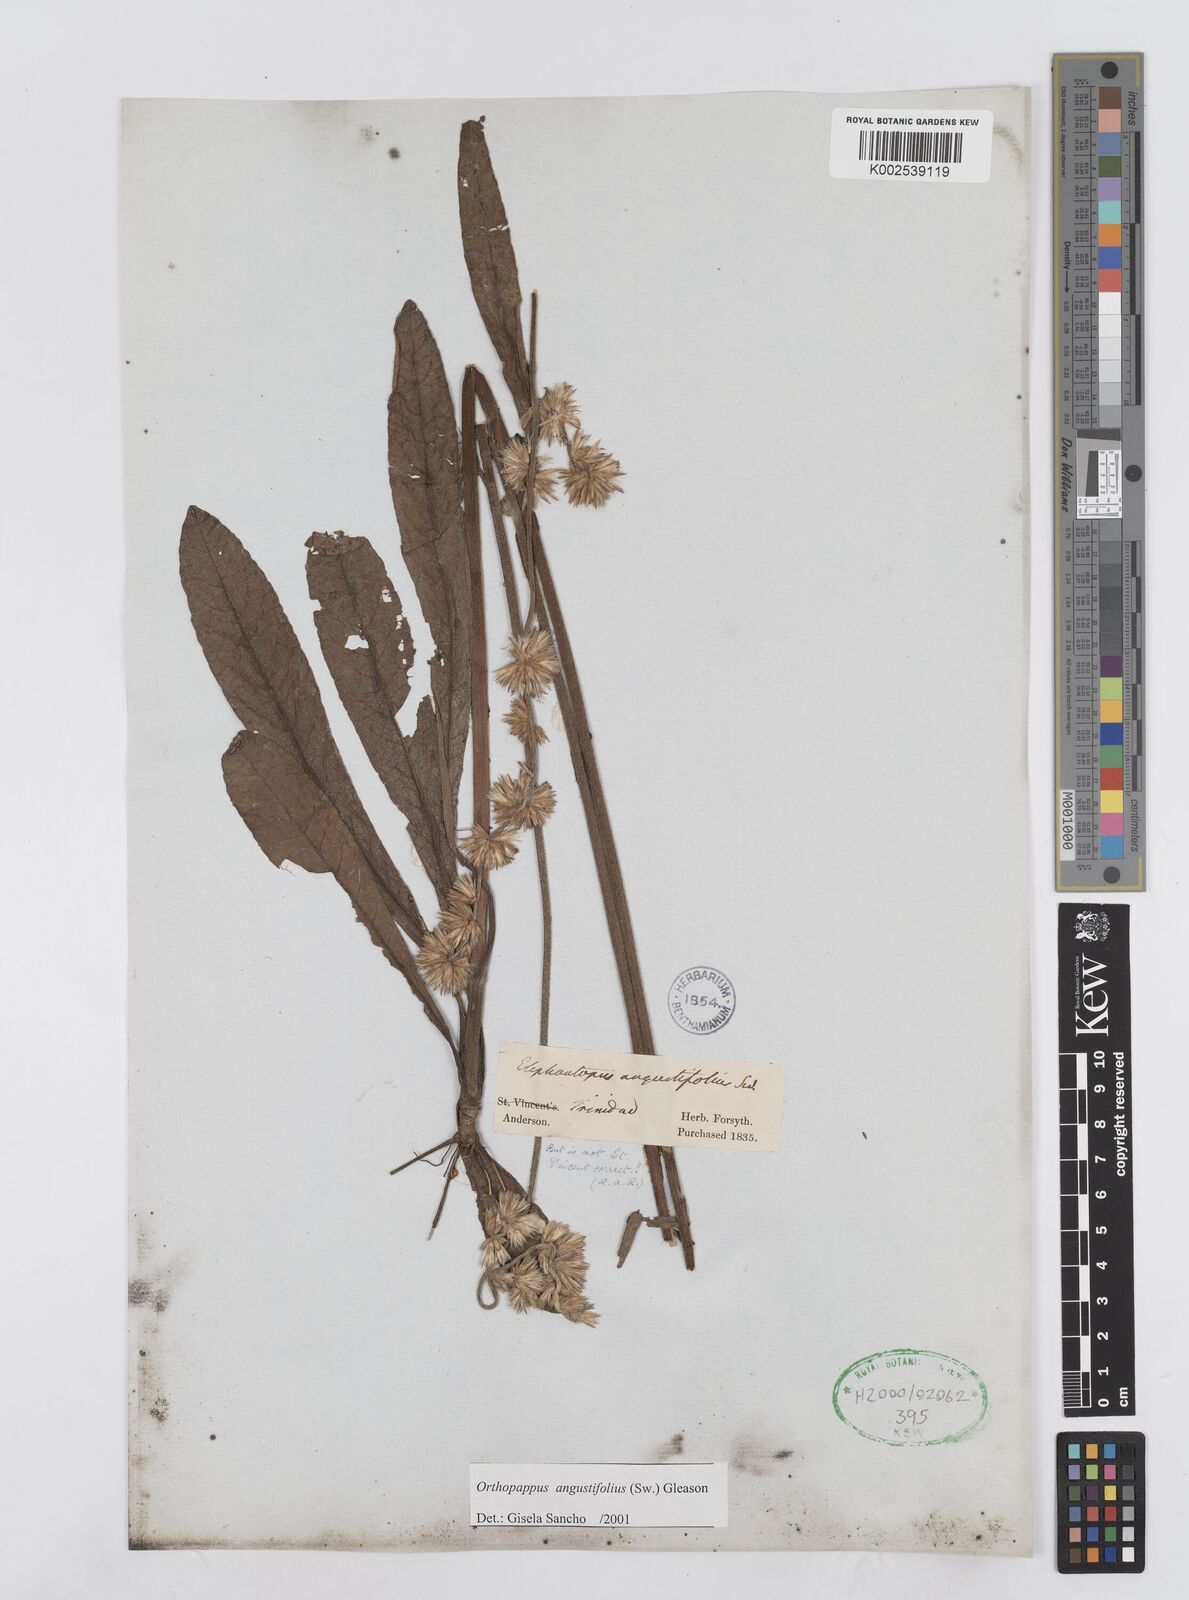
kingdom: Plantae
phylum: Tracheophyta
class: Magnoliopsida
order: Asterales
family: Asteraceae
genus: Orthopappus
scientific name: Orthopappus angustifolius
